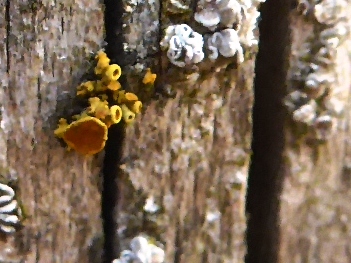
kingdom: Fungi
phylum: Ascomycota
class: Lecanoromycetes
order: Teloschistales
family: Teloschistaceae
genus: Polycauliona
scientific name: Polycauliona polycarpa
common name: mangefrugtet orangelav
